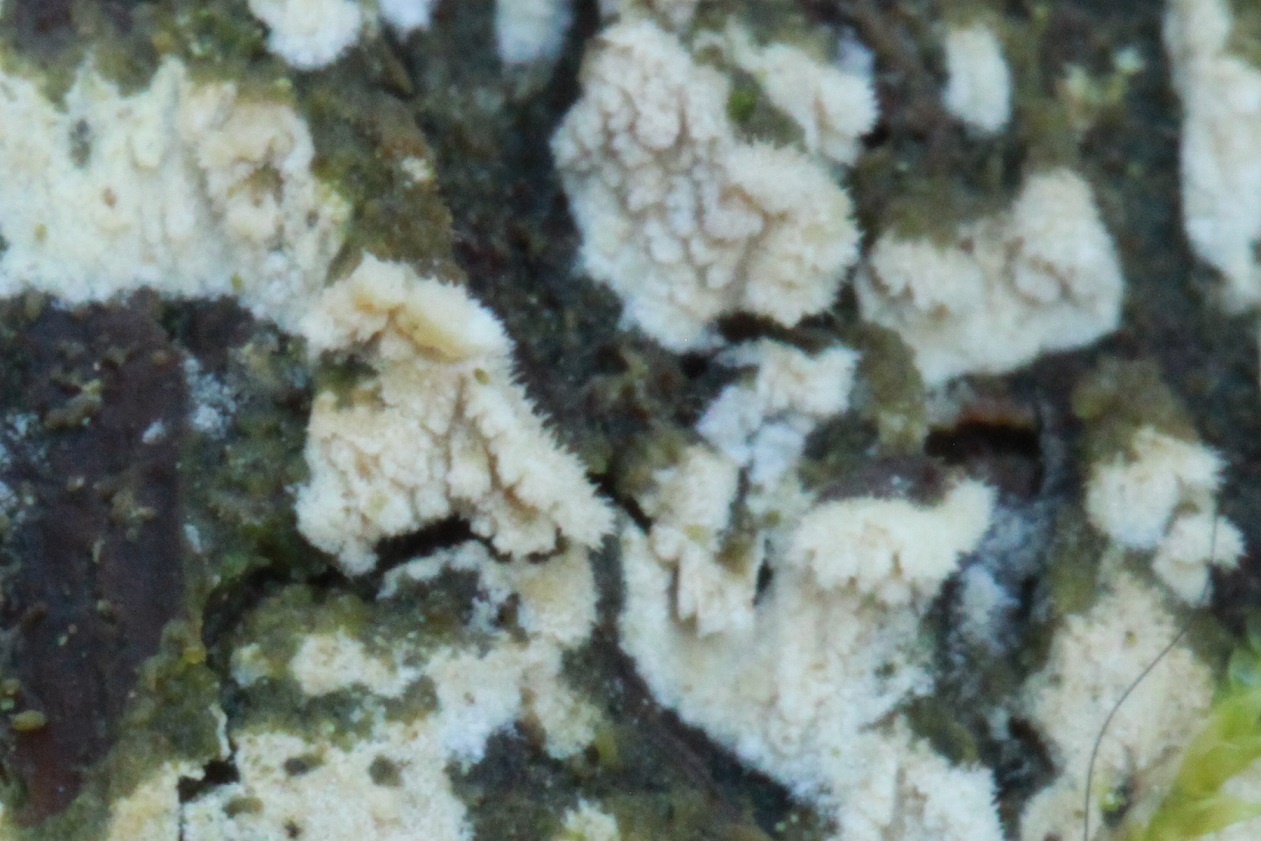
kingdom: Fungi
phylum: Basidiomycota
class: Agaricomycetes
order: Hymenochaetales
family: Schizoporaceae
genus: Xylodon
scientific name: Xylodon brevisetus
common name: tætvortet tandsvamp
